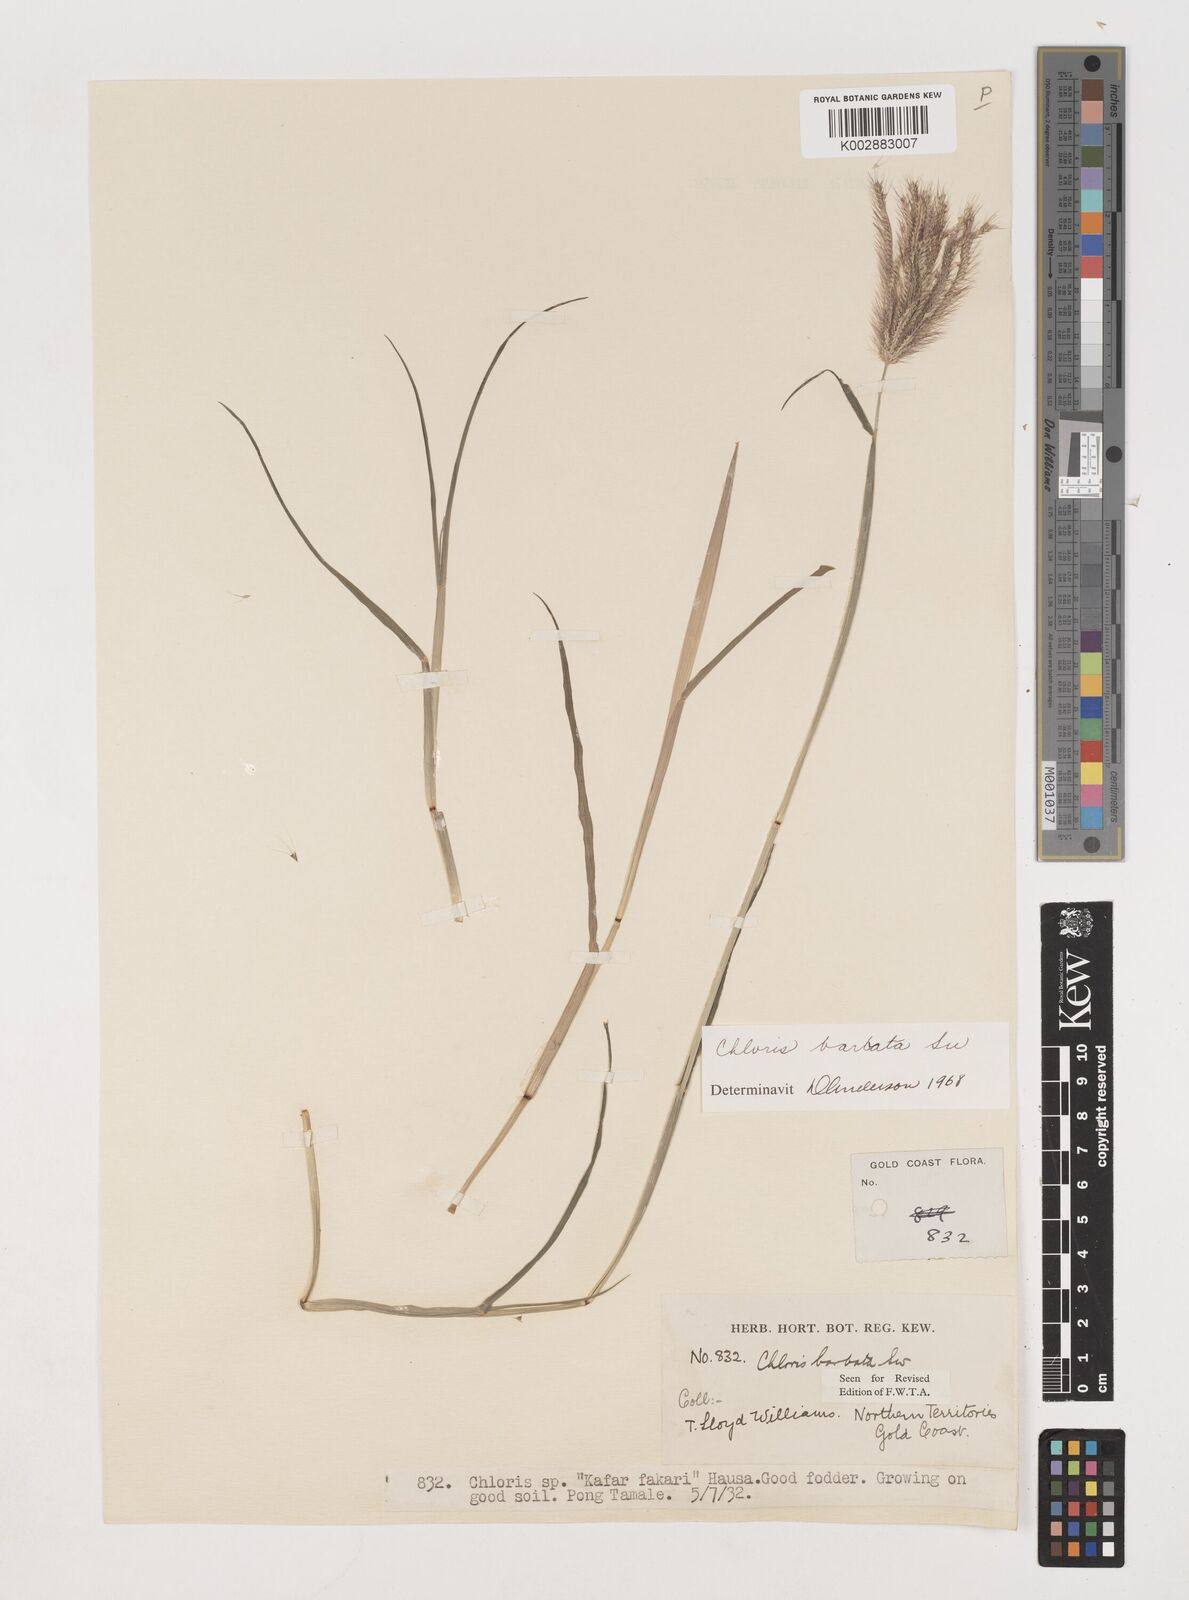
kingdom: Plantae
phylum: Tracheophyta
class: Liliopsida
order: Poales
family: Poaceae
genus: Chloris
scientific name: Chloris barbata
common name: Swollen fingergrass
